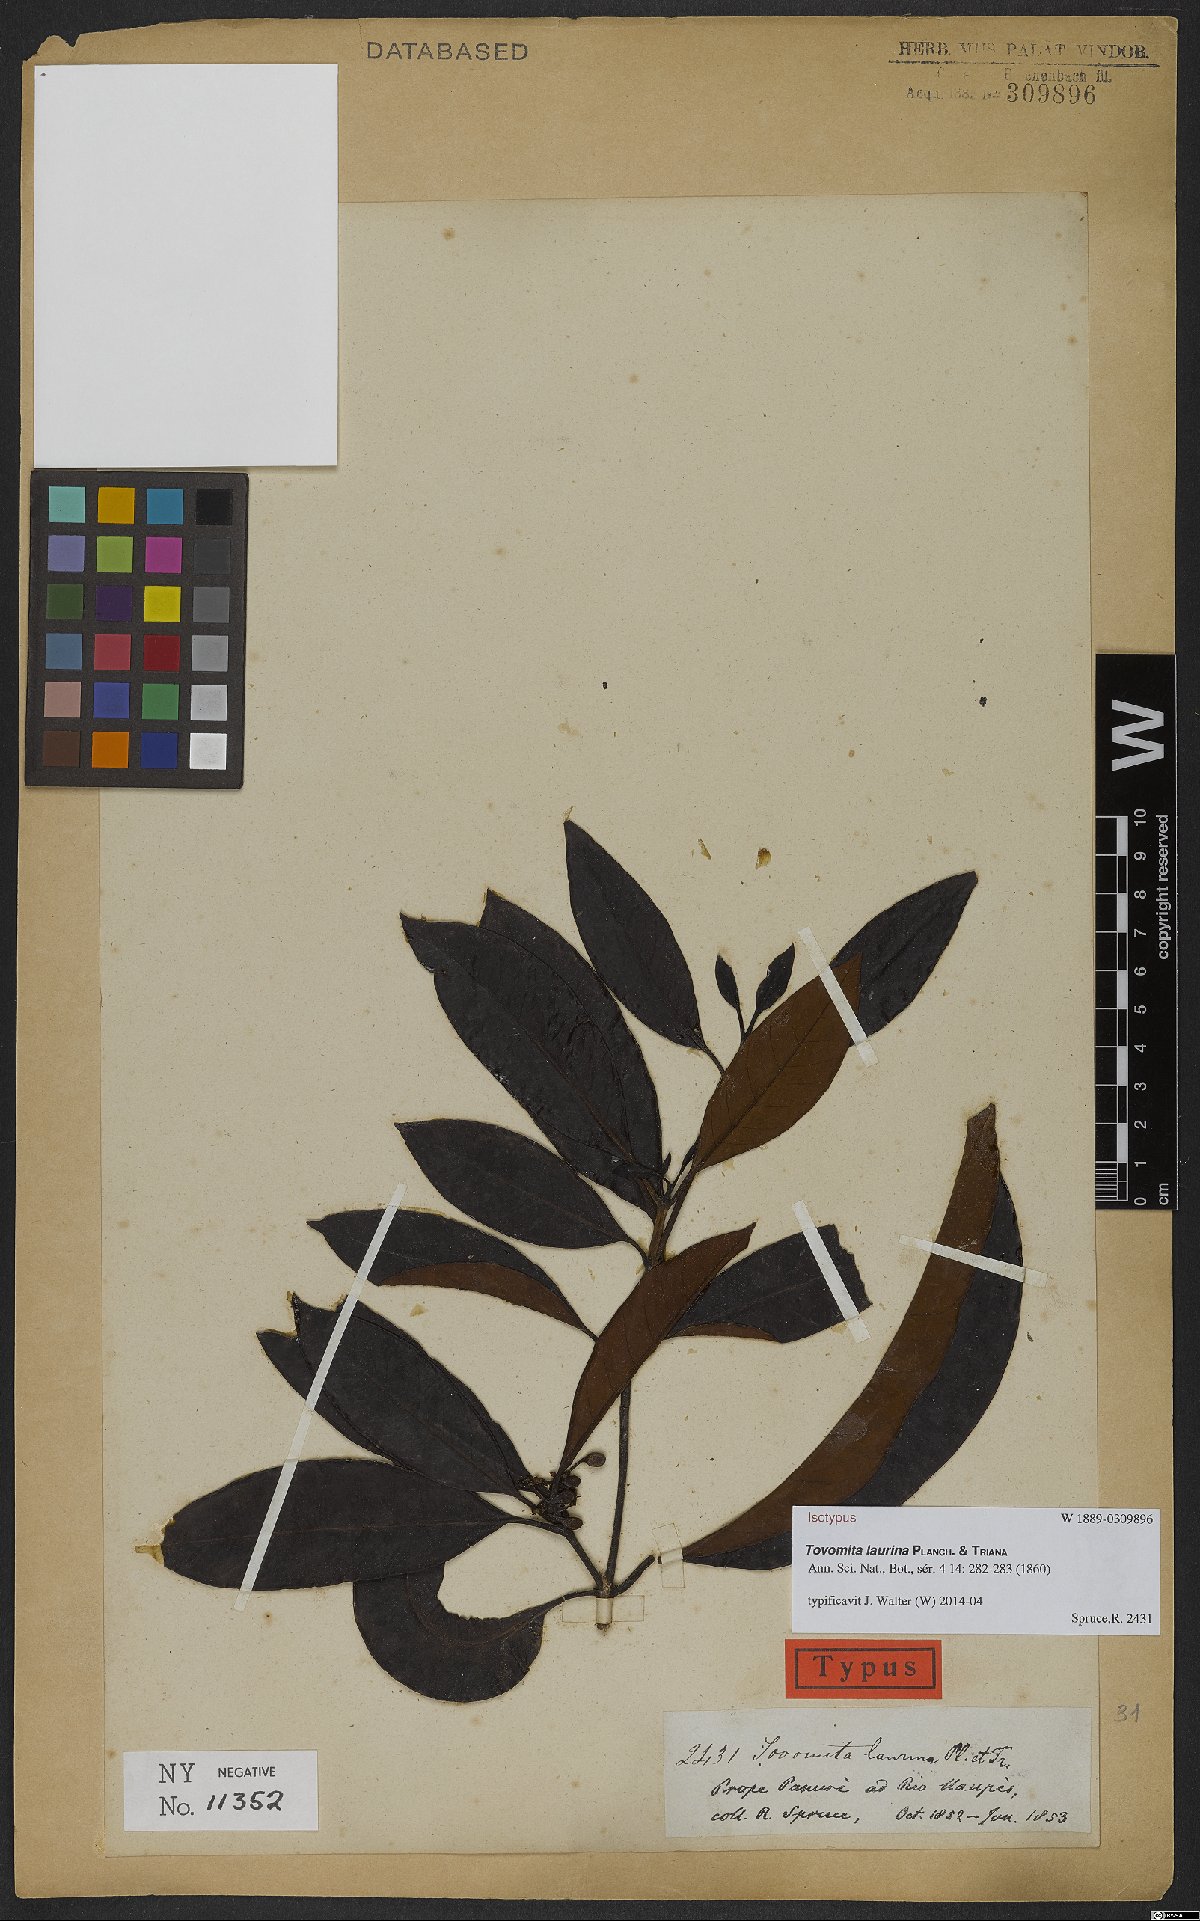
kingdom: Plantae
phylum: Tracheophyta
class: Magnoliopsida
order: Malpighiales
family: Clusiaceae
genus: Tovomita
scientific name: Tovomita laurina
